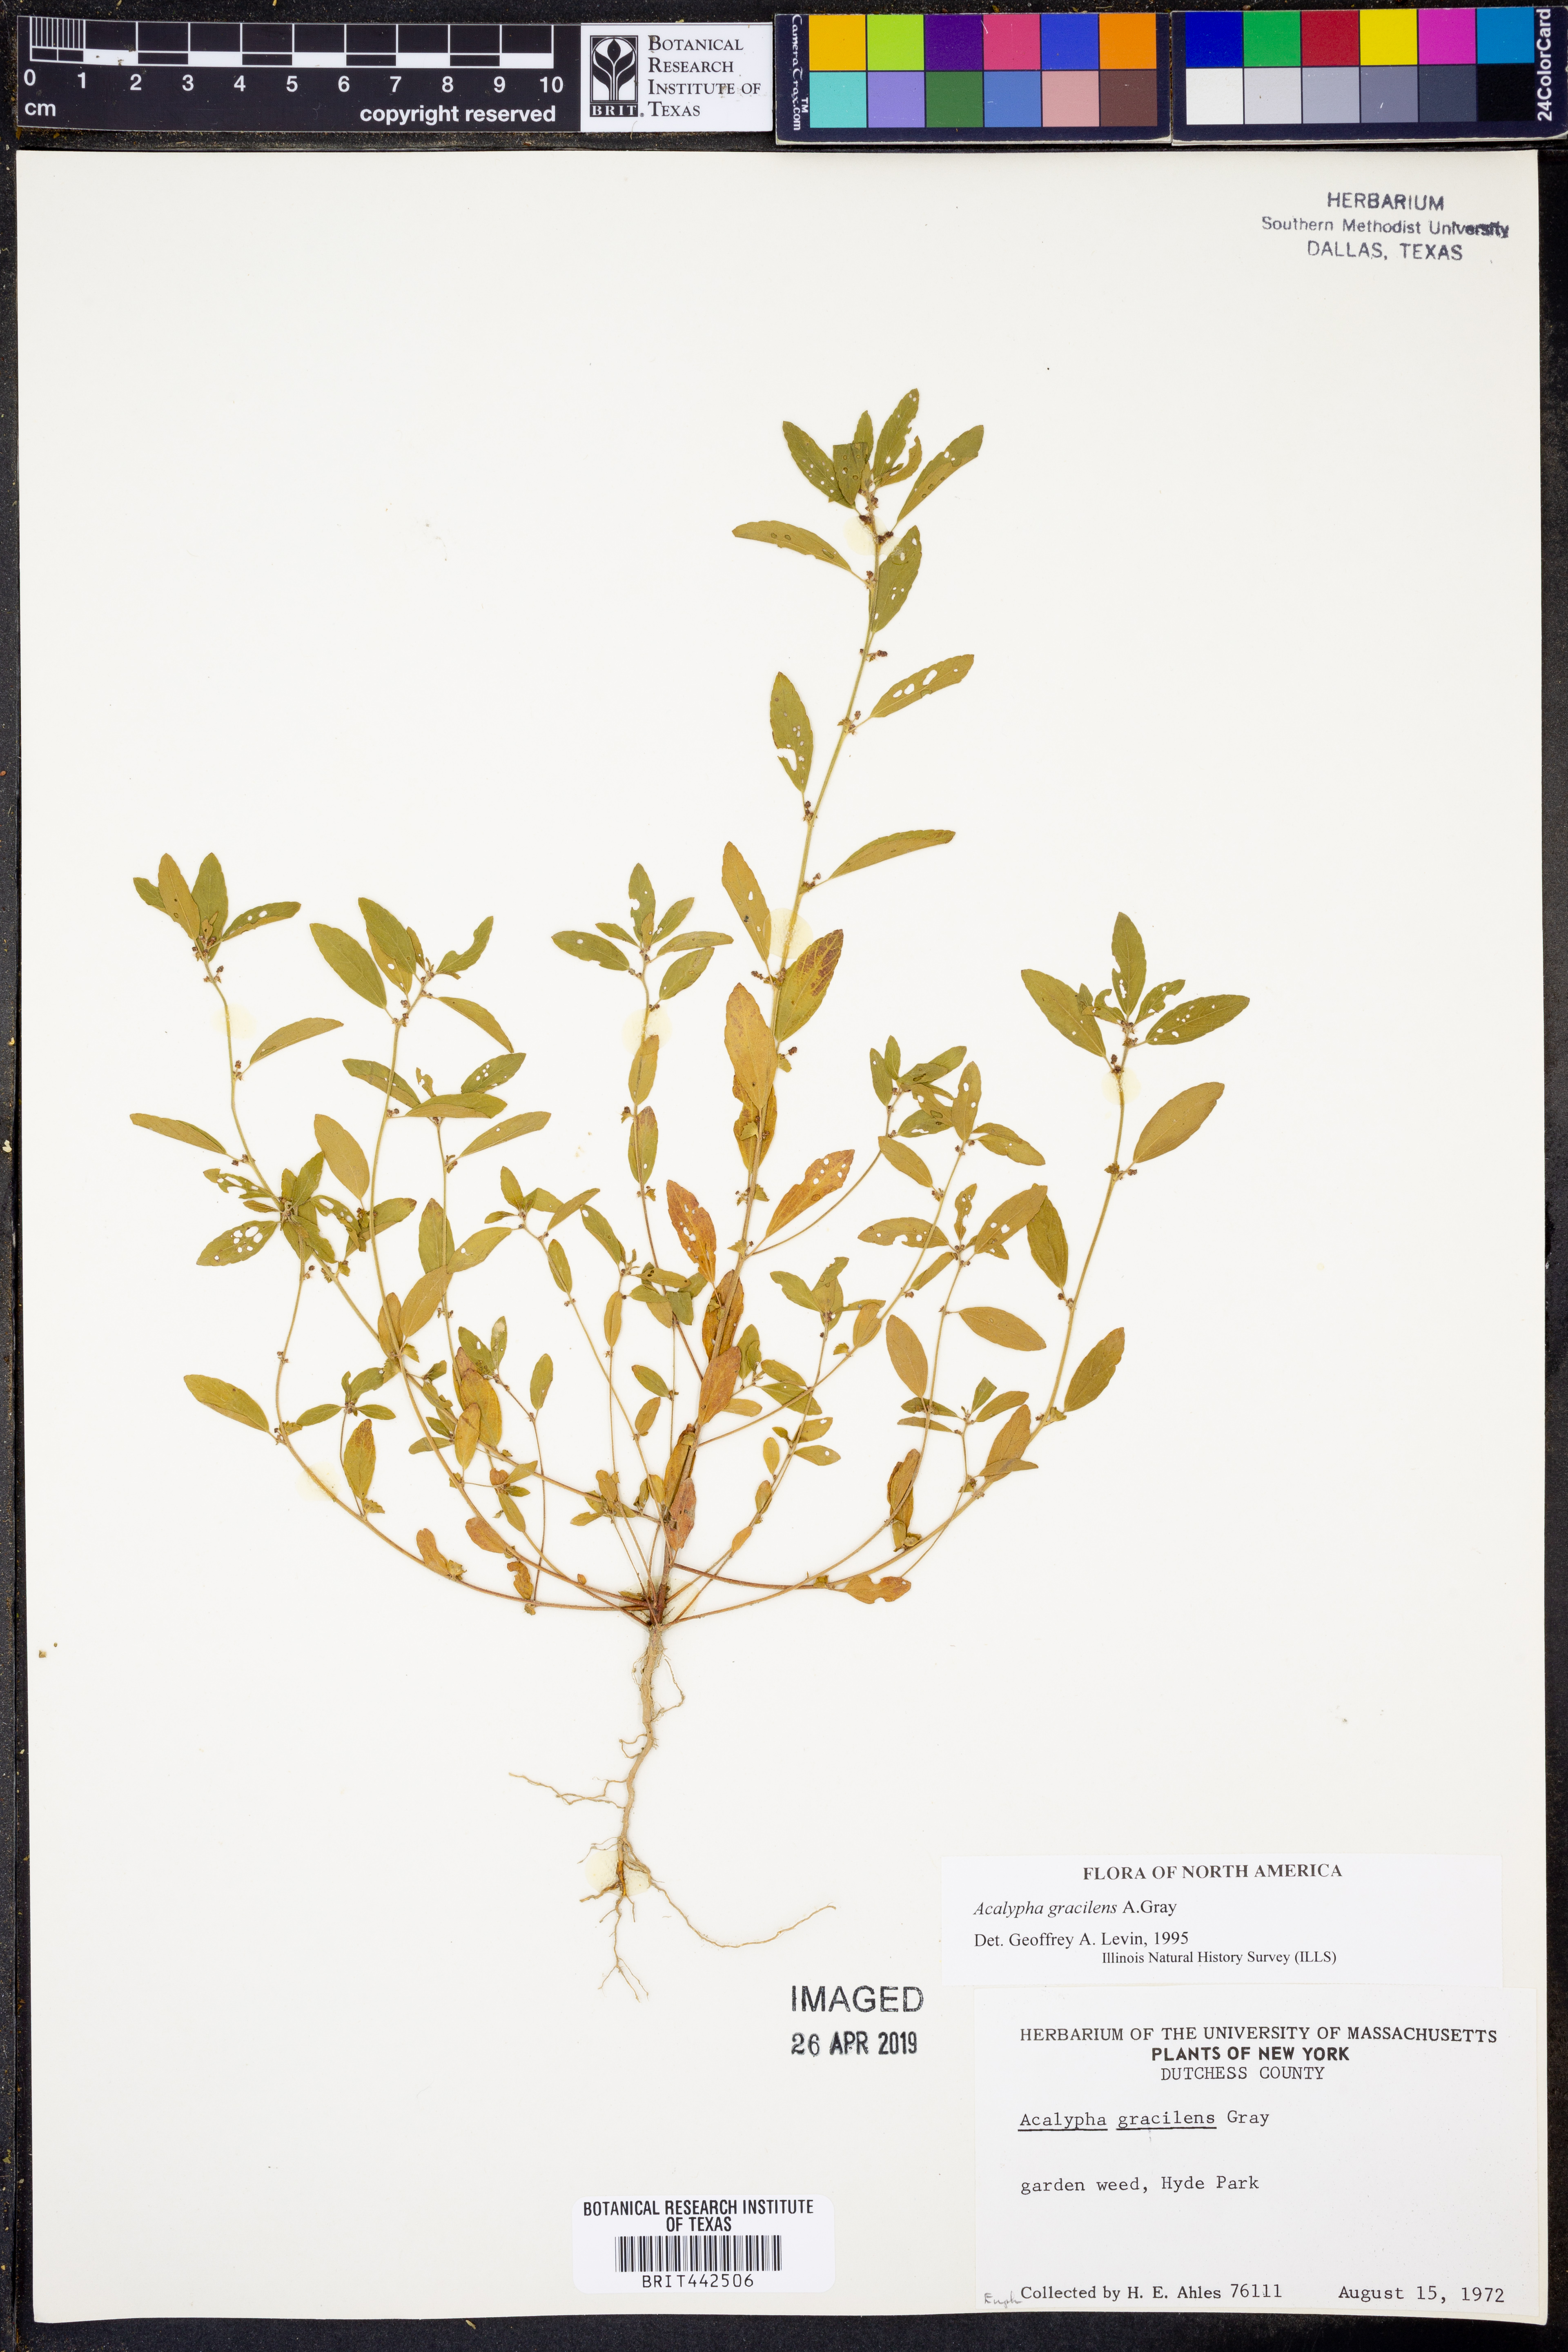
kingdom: Plantae
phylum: Tracheophyta
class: Magnoliopsida
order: Malpighiales
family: Euphorbiaceae
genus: Acalypha
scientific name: Acalypha gracilens
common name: Slender three-seeded mercury
